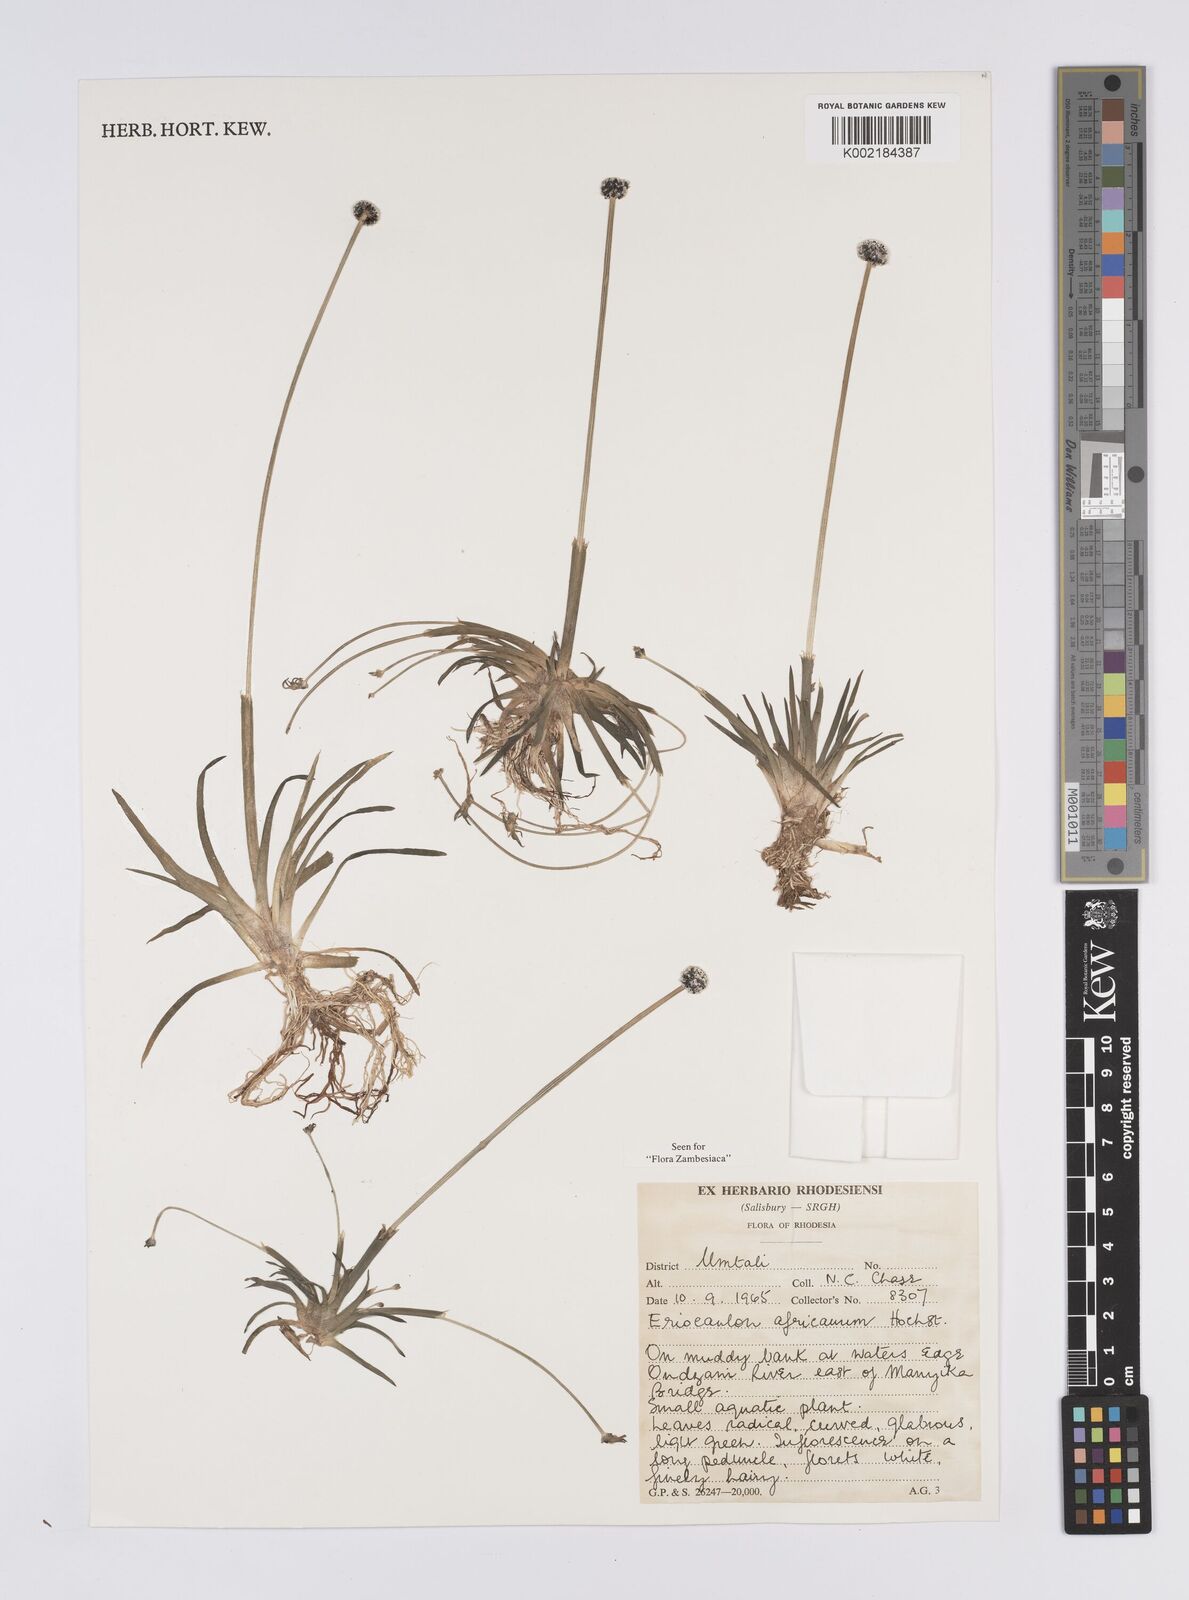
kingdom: Plantae
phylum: Tracheophyta
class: Liliopsida
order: Poales
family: Eriocaulaceae
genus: Eriocaulon
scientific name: Eriocaulon africanum
